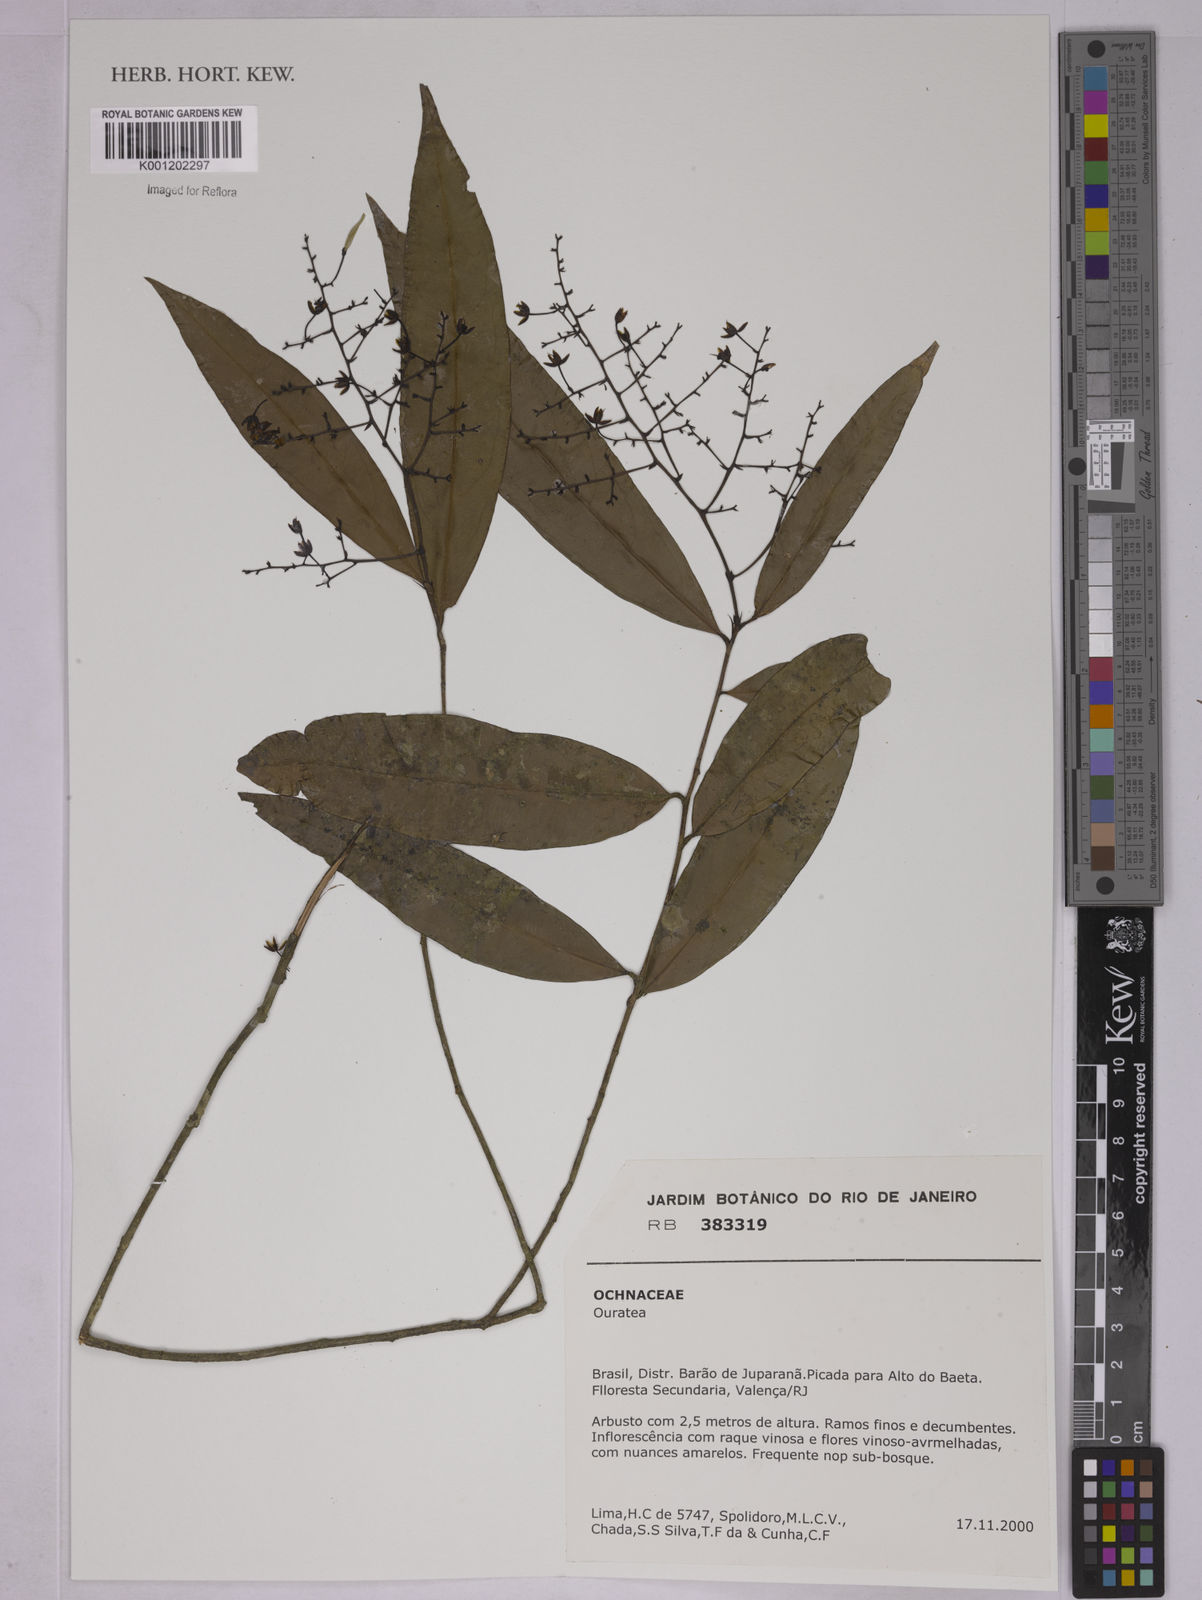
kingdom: Plantae
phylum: Tracheophyta
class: Magnoliopsida
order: Malpighiales
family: Ochnaceae
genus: Ouratea
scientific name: Ouratea
